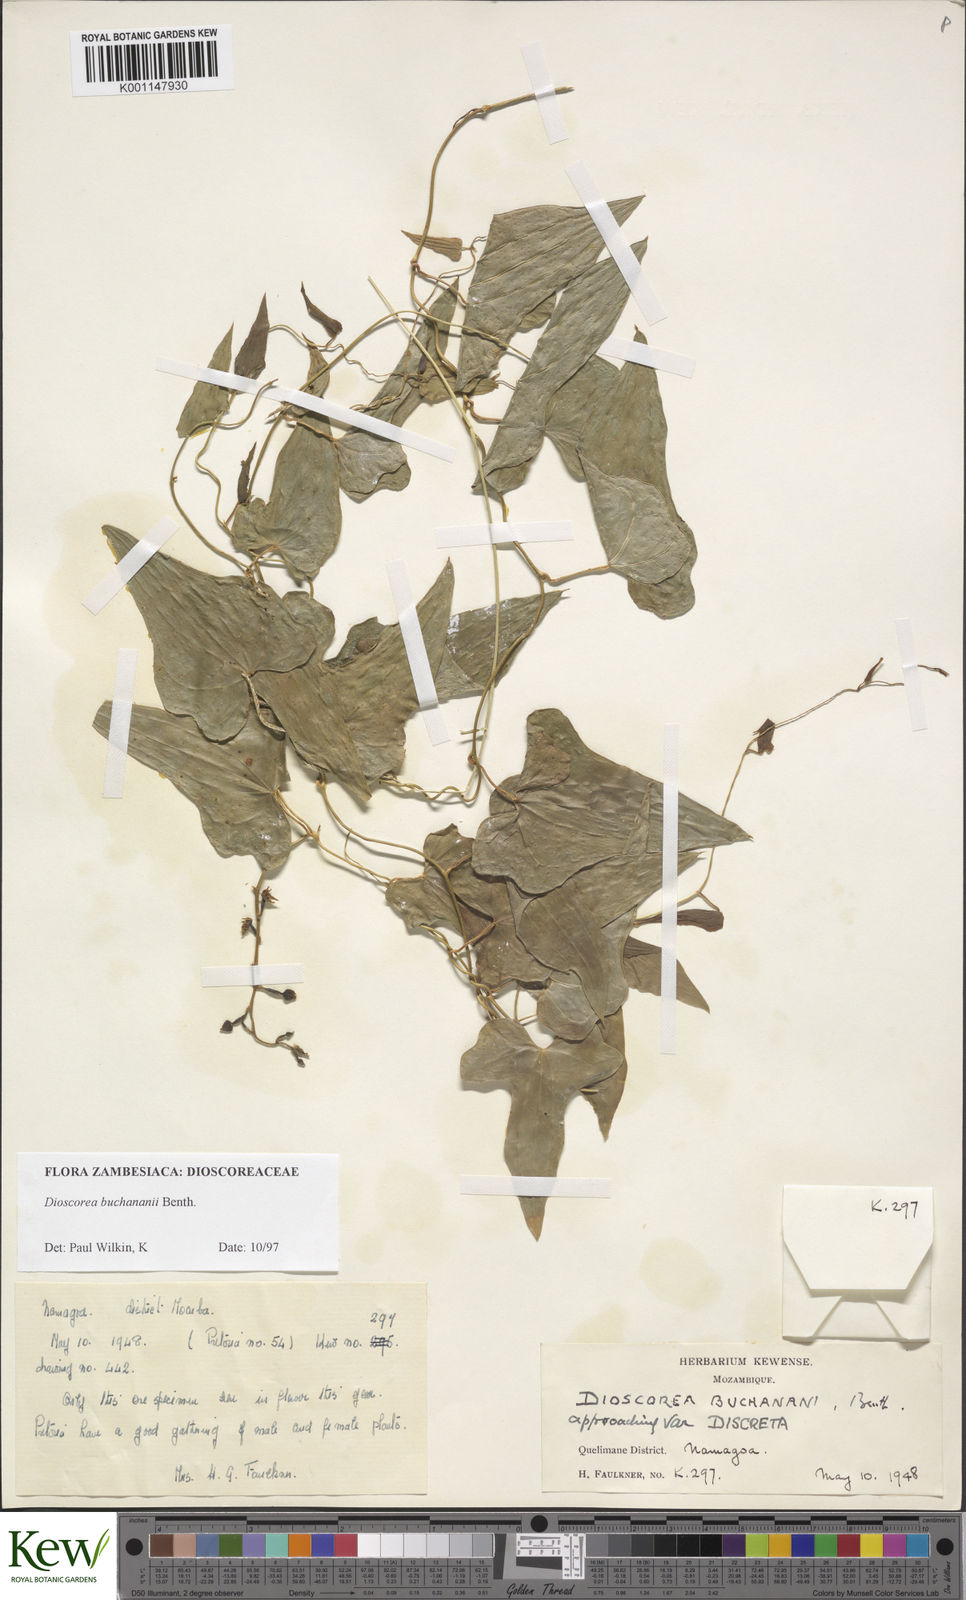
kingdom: Plantae
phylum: Tracheophyta
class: Liliopsida
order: Dioscoreales
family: Dioscoreaceae
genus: Dioscorea
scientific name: Dioscorea buchananii
